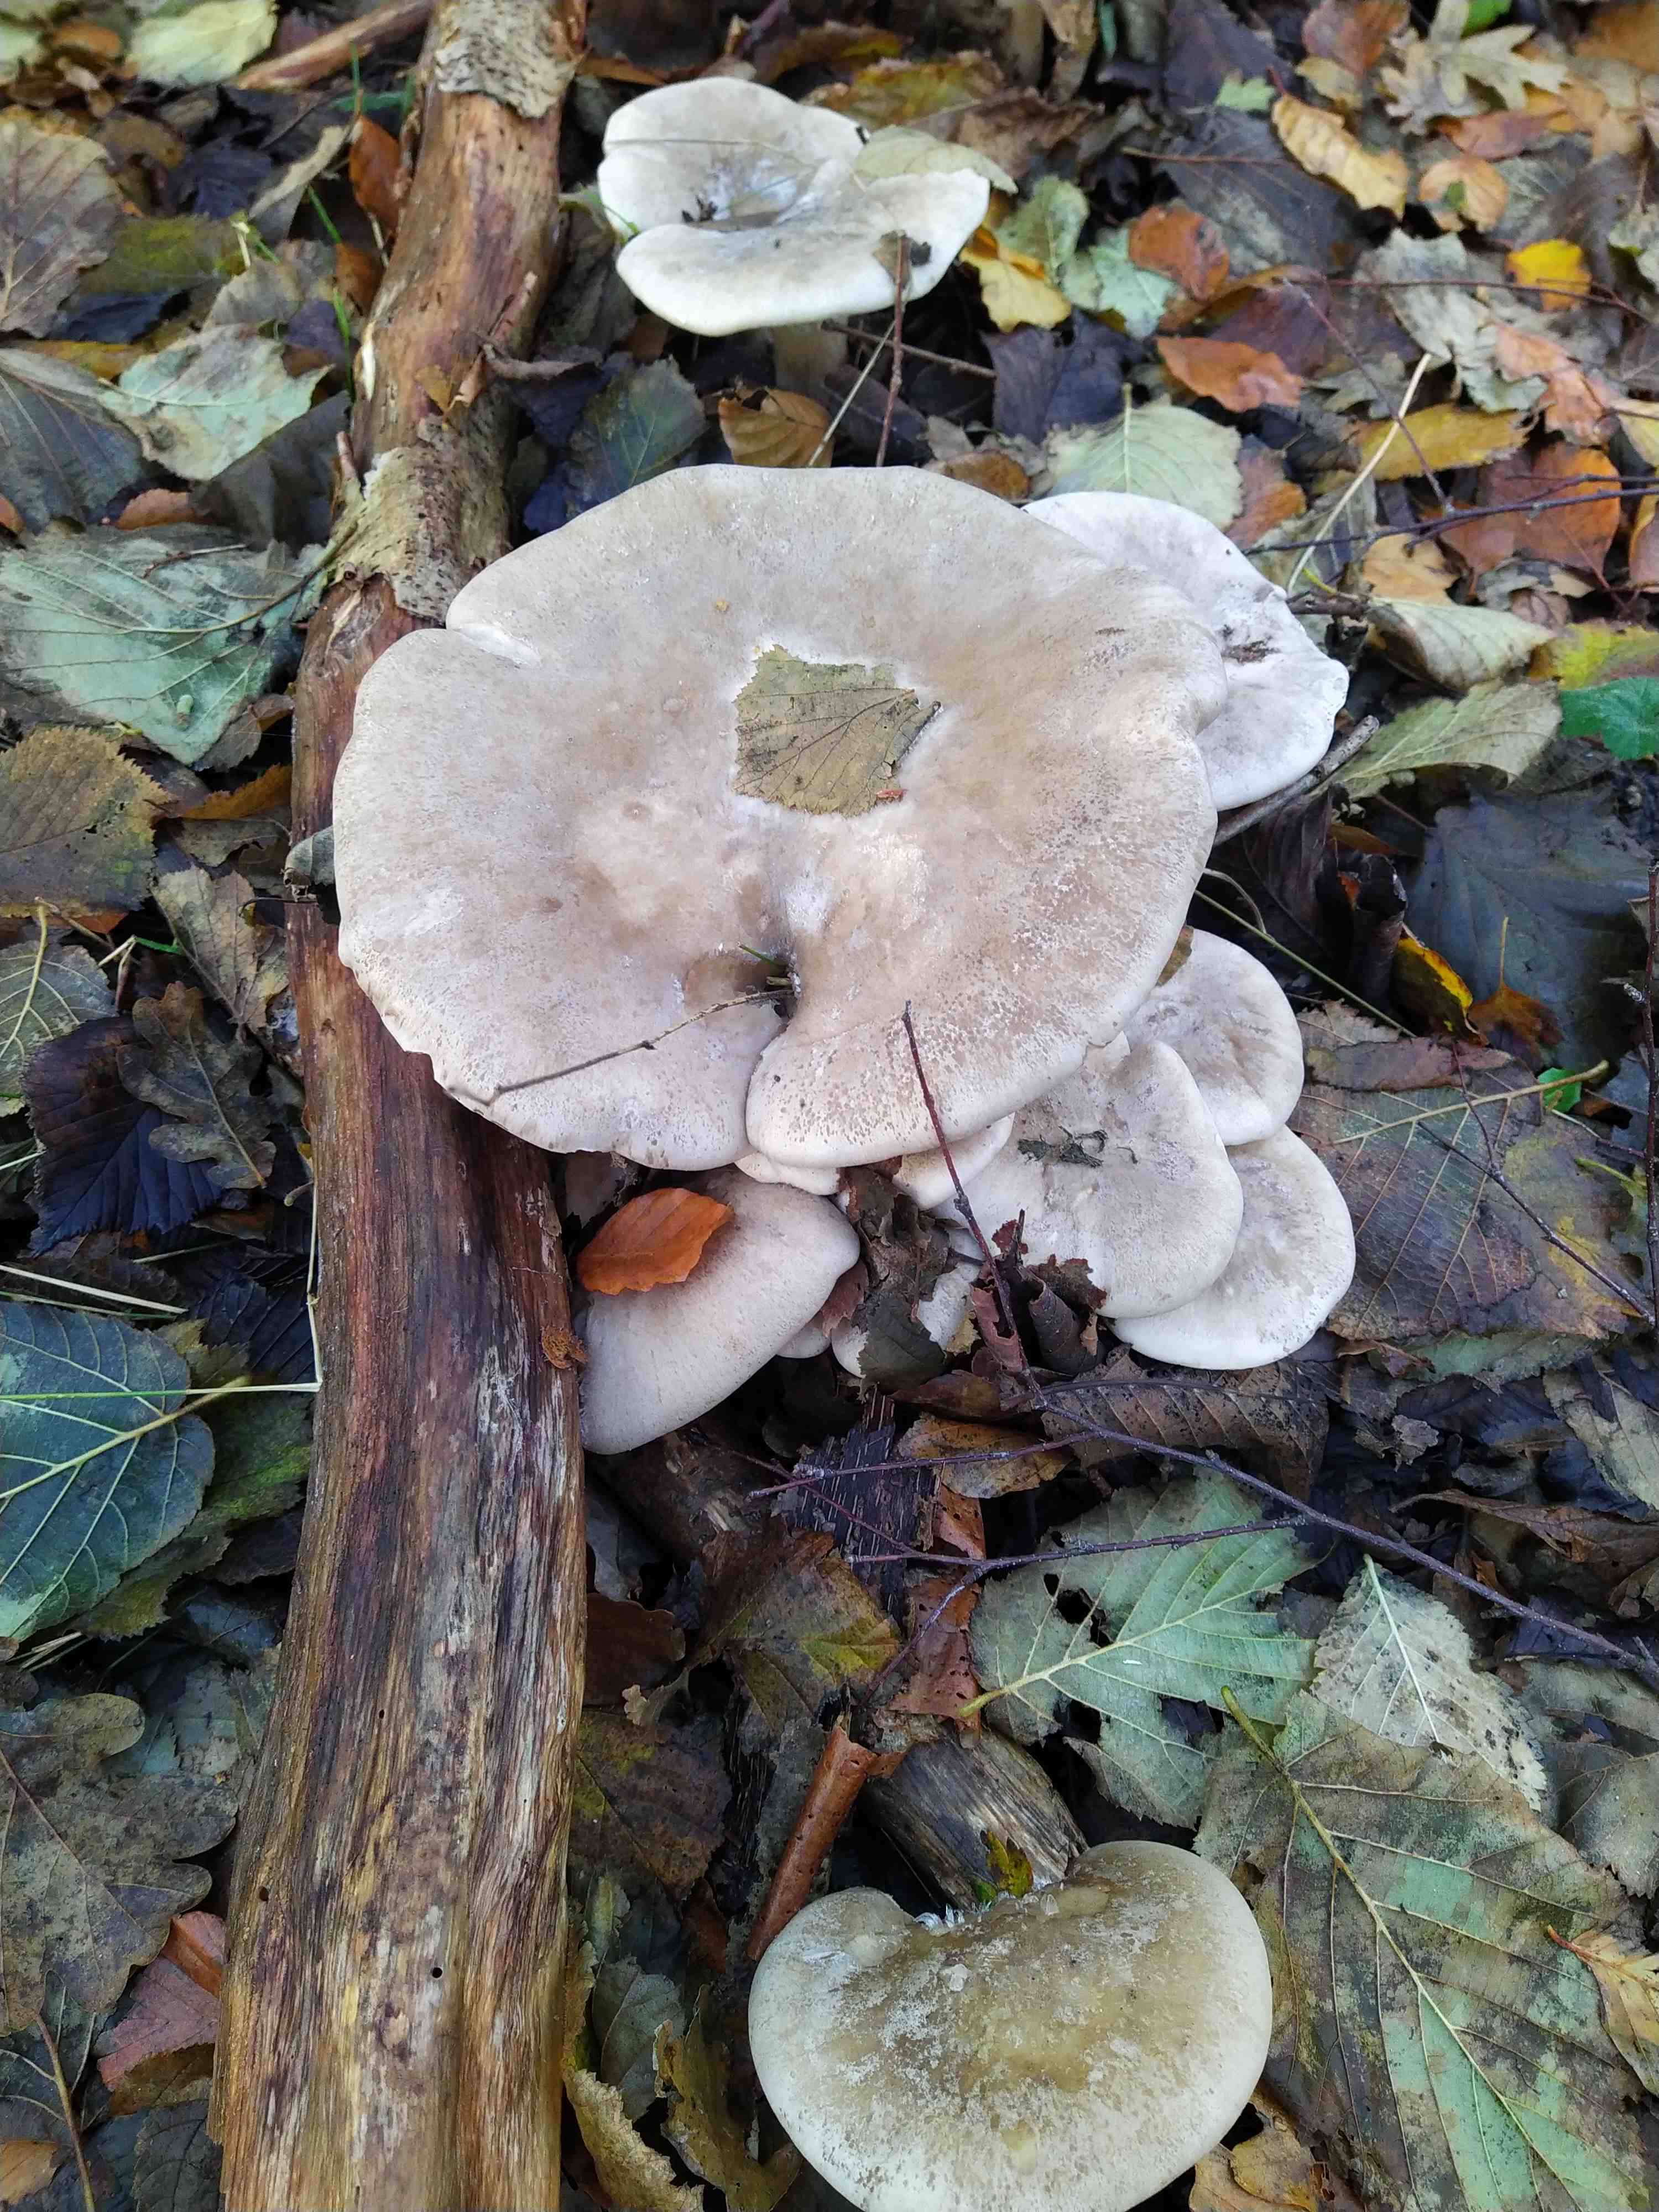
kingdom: Fungi
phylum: Basidiomycota
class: Agaricomycetes
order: Agaricales
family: Tricholomataceae
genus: Clitocybe
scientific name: Clitocybe nebularis
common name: tåge-tragthat
